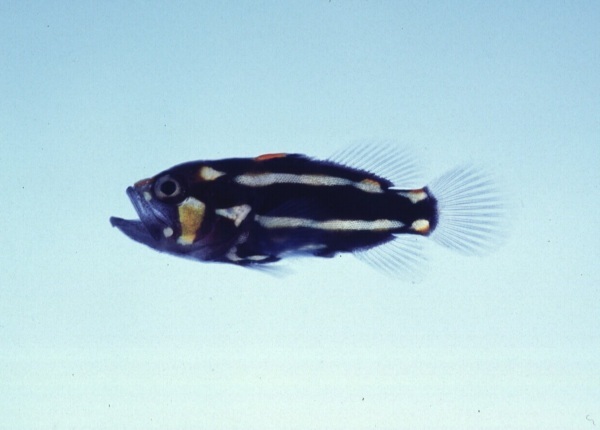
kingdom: Animalia
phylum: Chordata
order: Perciformes
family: Serranidae
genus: Grammistes
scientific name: Grammistes sexlineatus
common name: Sixline soapfish
